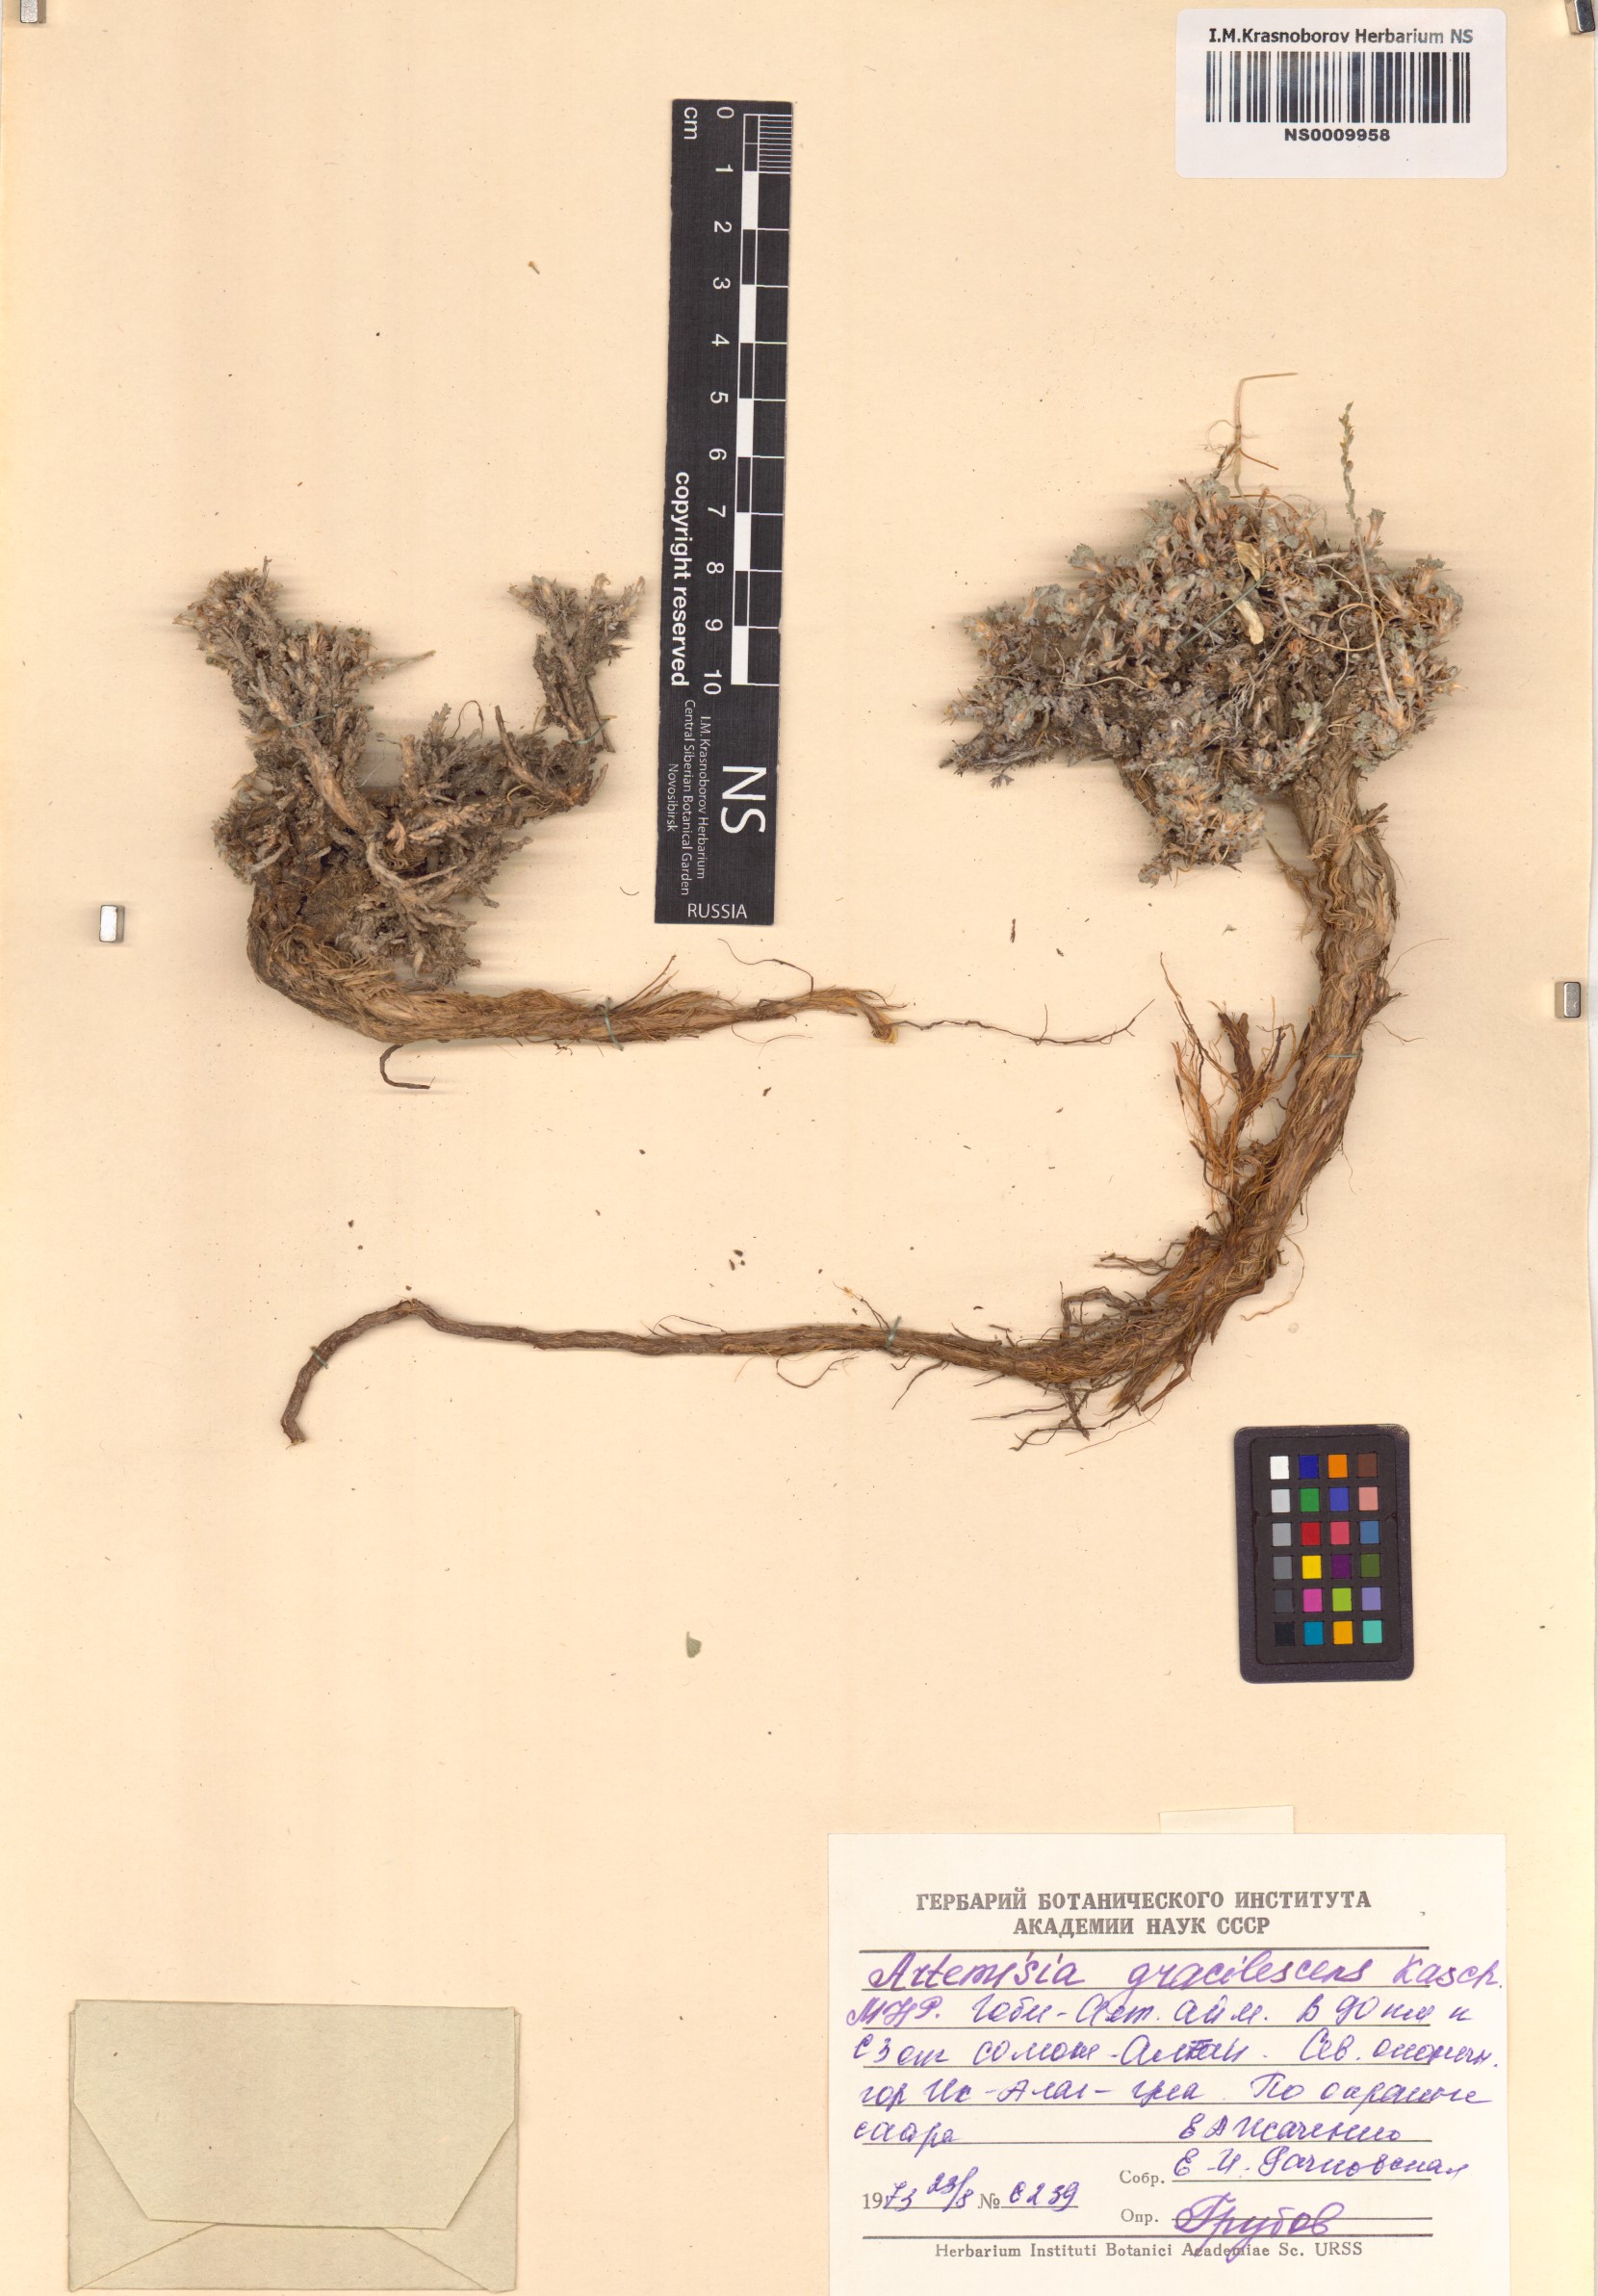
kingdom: Plantae
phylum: Tracheophyta
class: Magnoliopsida
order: Asterales
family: Asteraceae
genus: Artemisia
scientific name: Artemisia gracilescens
